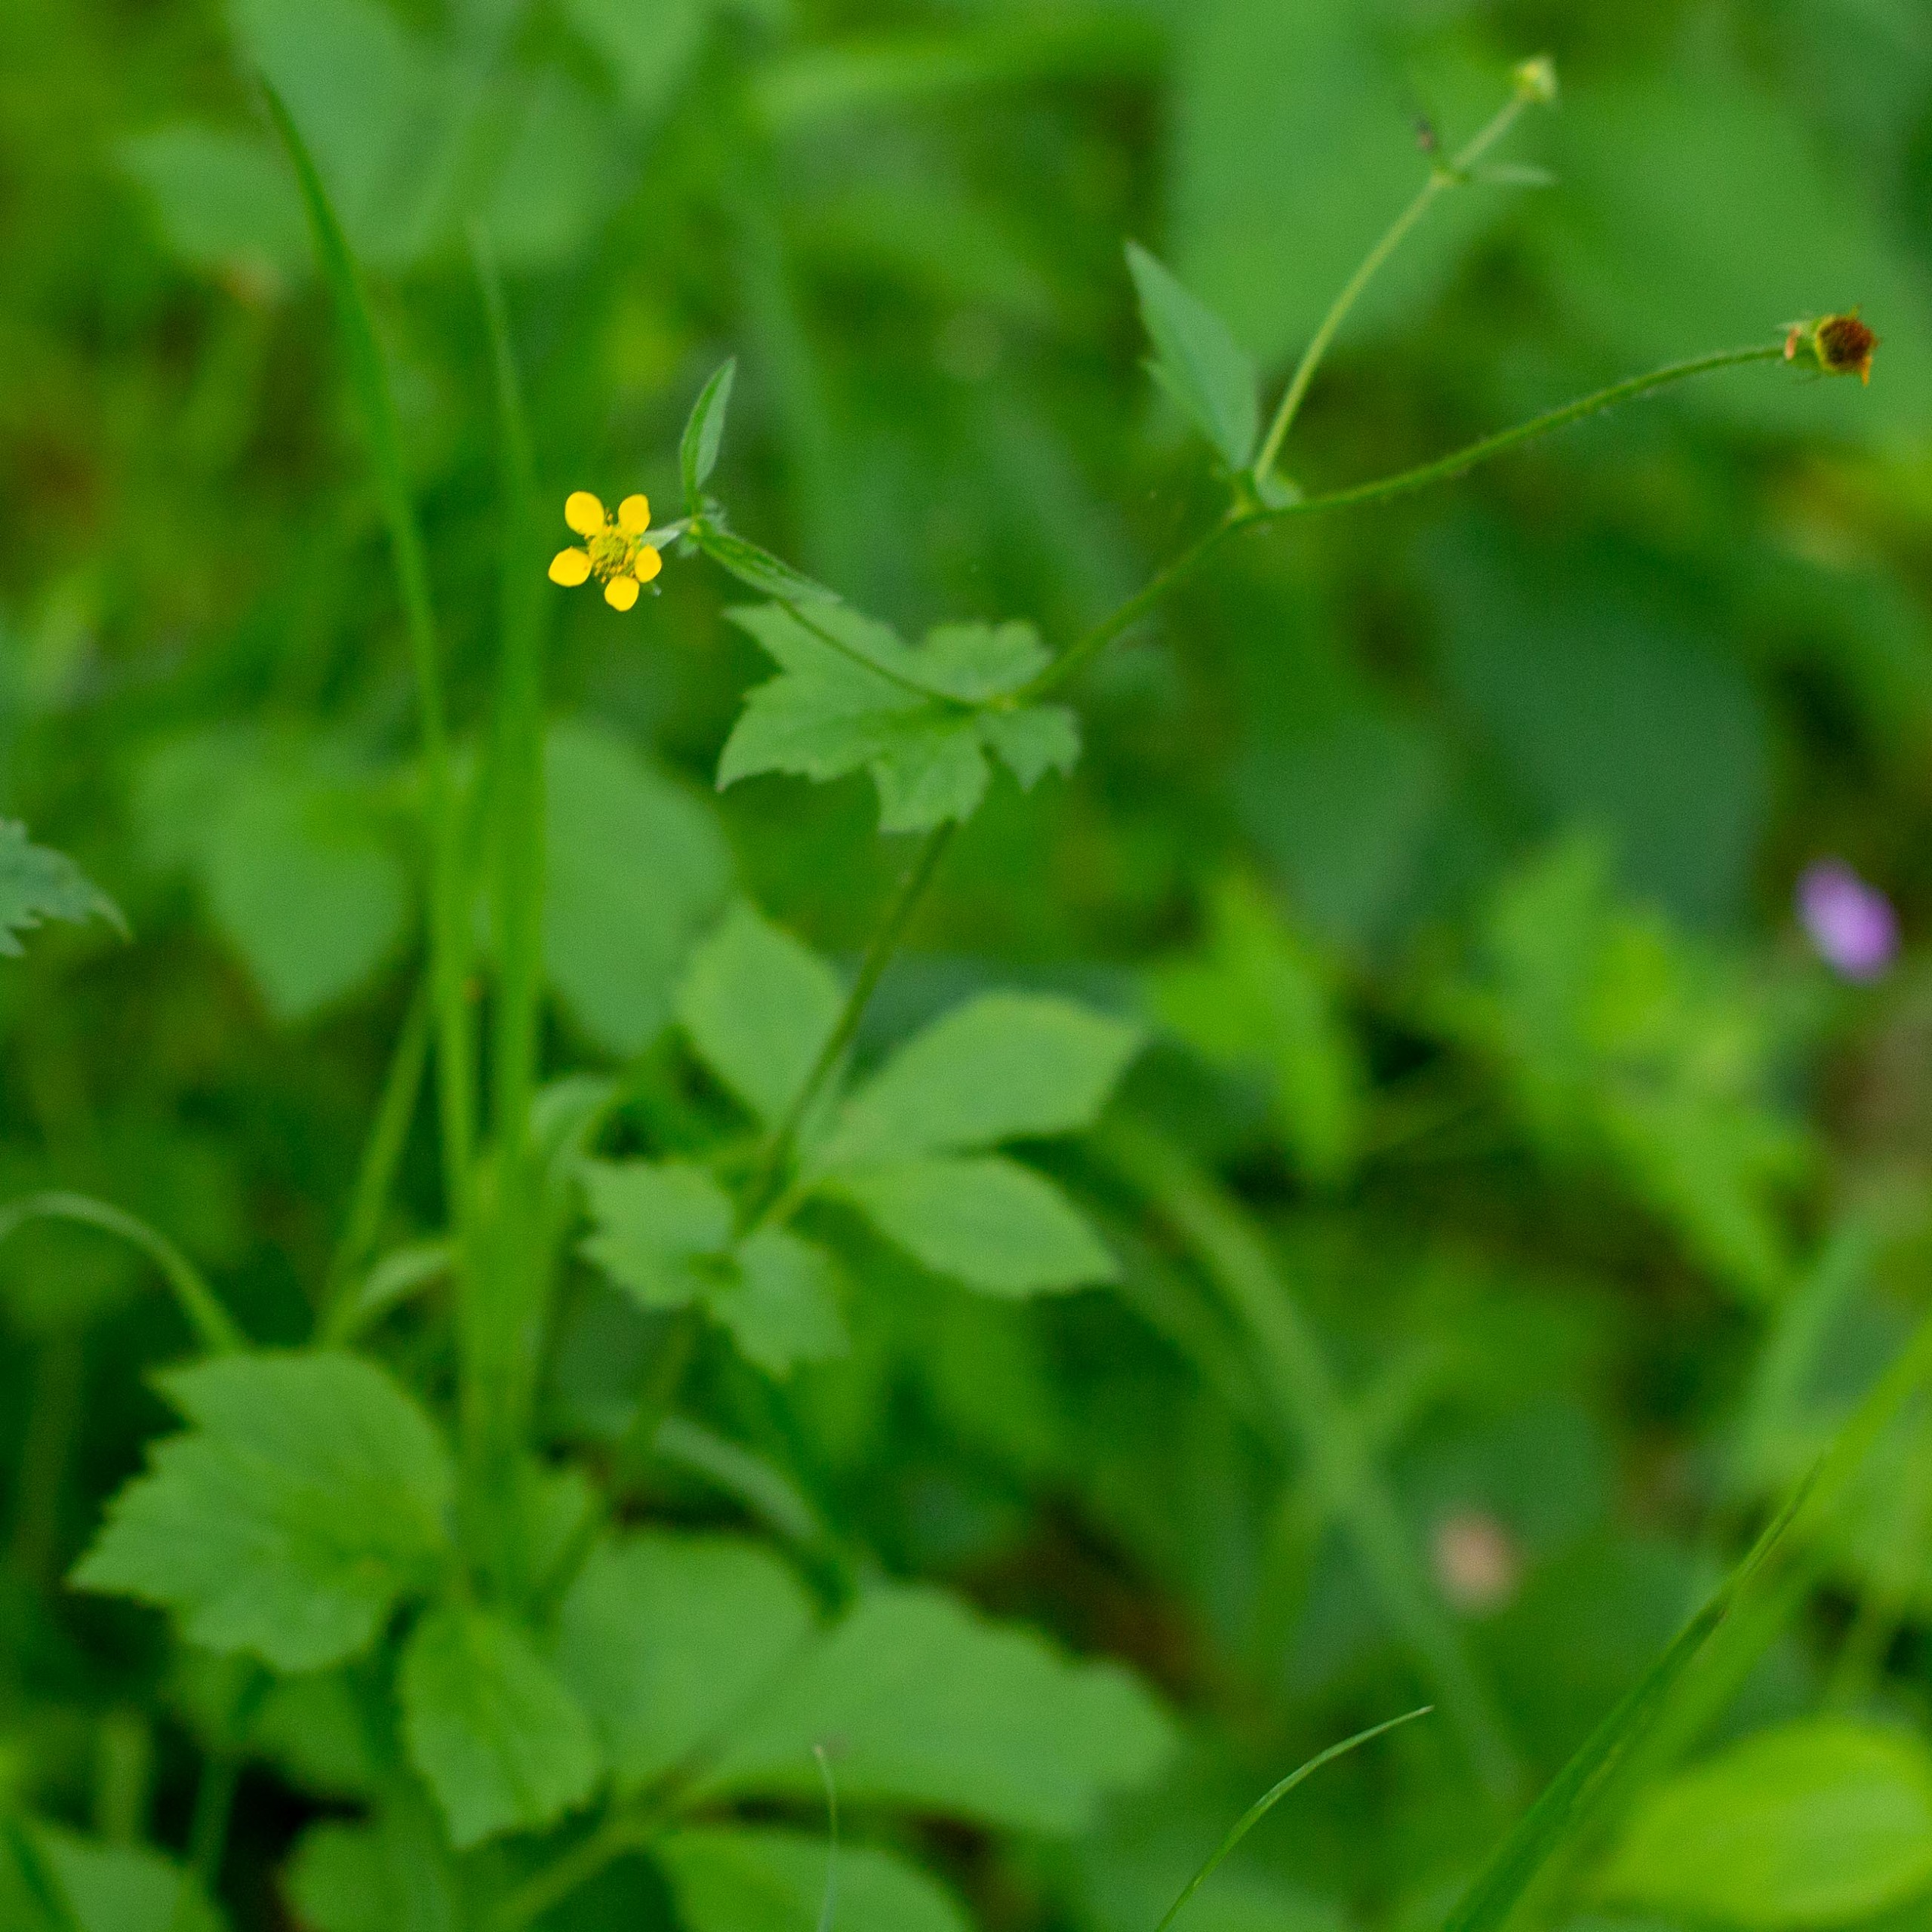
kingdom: Plantae
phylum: Tracheophyta
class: Magnoliopsida
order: Rosales
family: Rosaceae
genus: Geum
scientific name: Geum urbanum
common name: Feber-nellikerod
